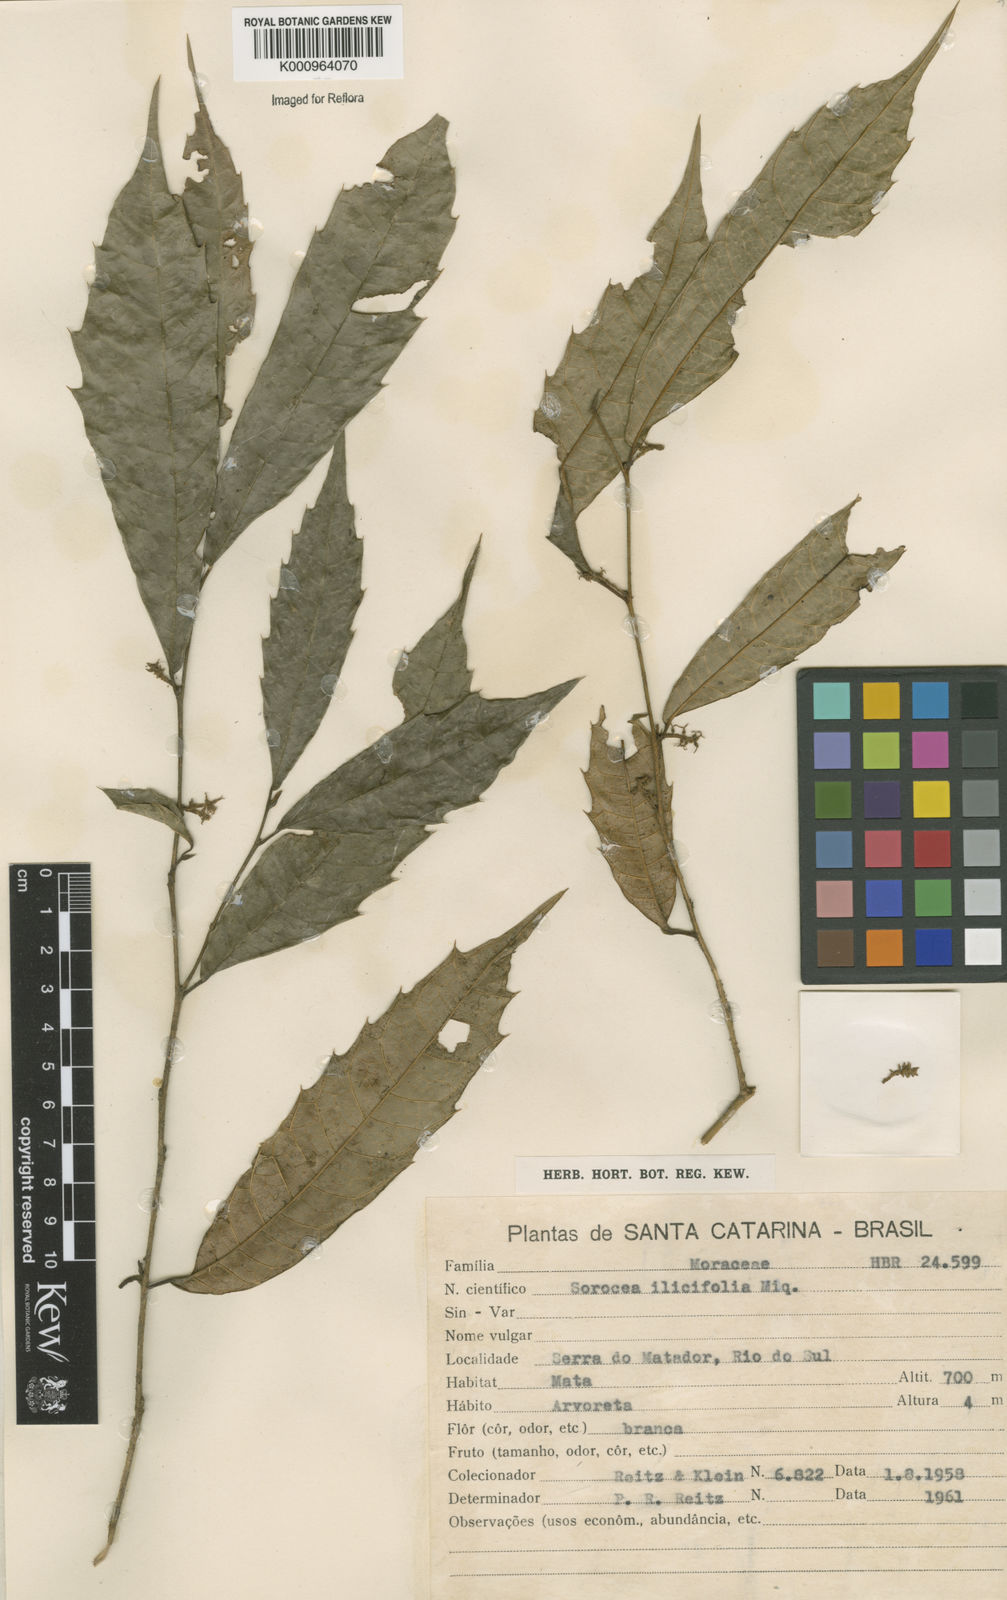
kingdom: Plantae
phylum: Tracheophyta
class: Magnoliopsida
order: Rosales
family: Moraceae
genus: Sorocea
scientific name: Sorocea
